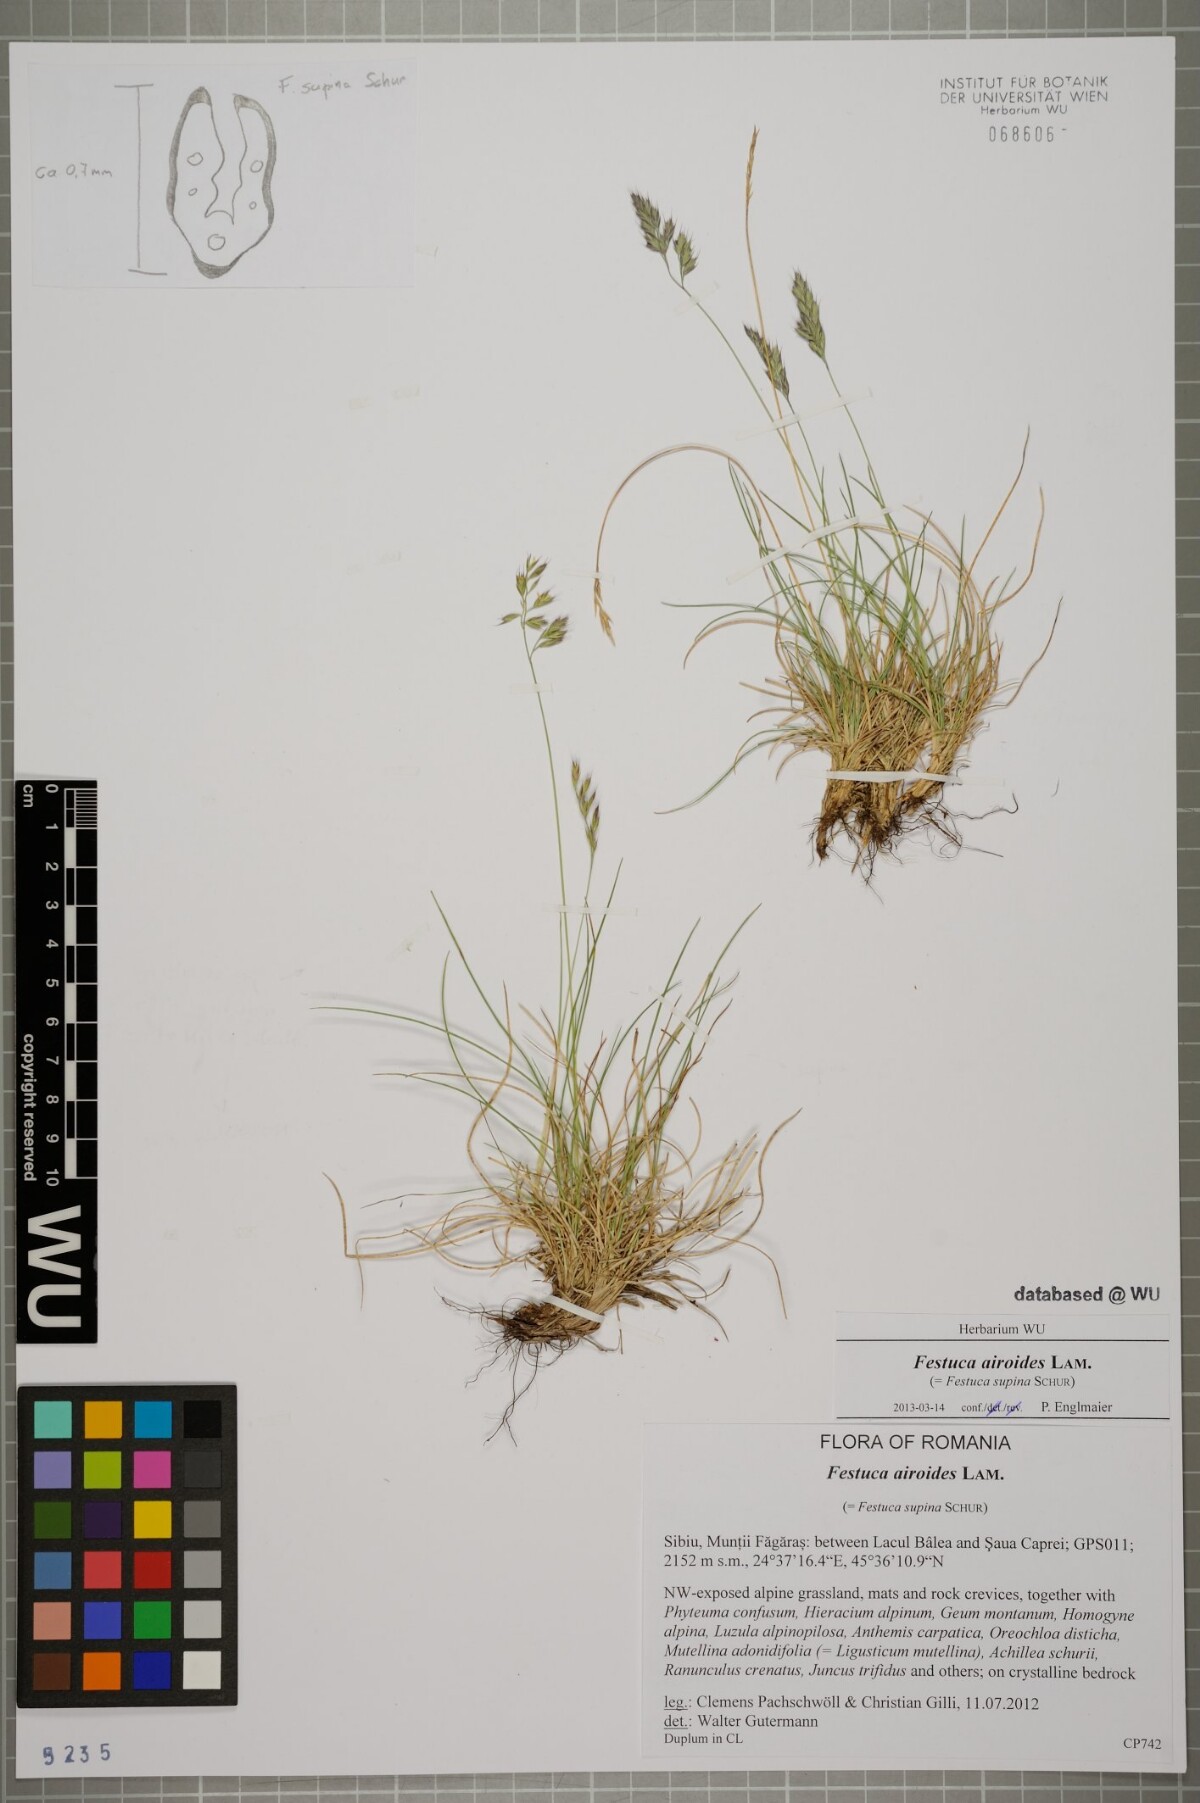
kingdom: Plantae
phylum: Tracheophyta
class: Liliopsida
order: Poales
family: Poaceae
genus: Festuca
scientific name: Festuca airoides
